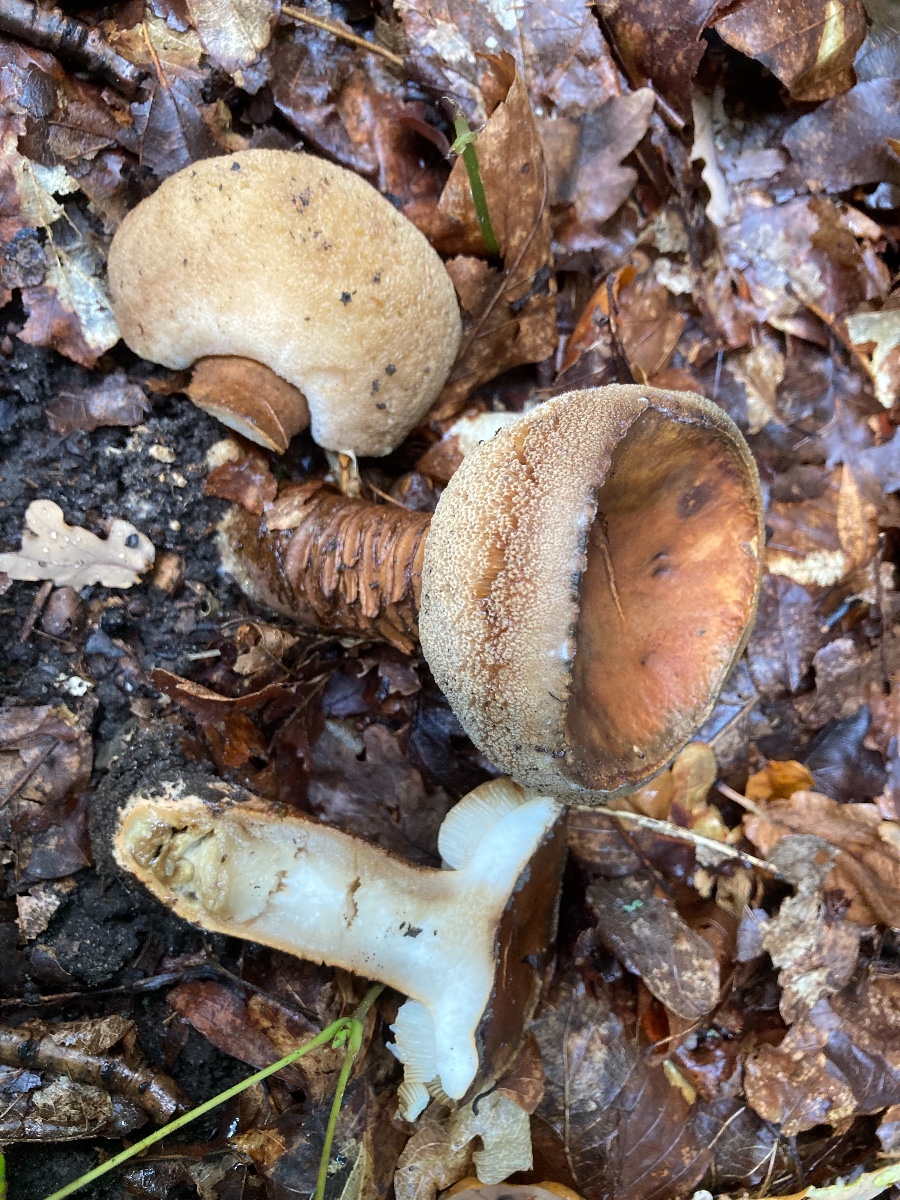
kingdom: Fungi
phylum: Basidiomycota
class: Agaricomycetes
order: Boletales
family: Gyroporaceae
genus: Gyroporus
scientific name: Gyroporus castaneus
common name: kastanie-kammerrørhat
